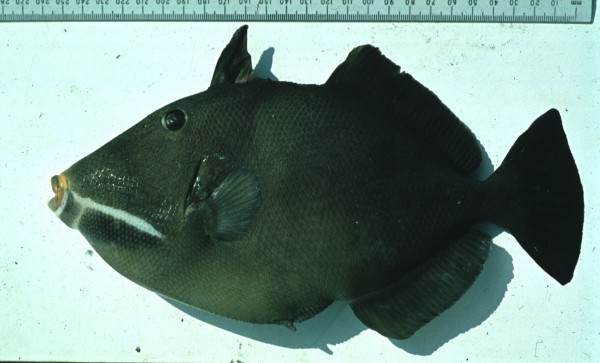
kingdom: Animalia
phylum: Chordata
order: Tetraodontiformes
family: Balistidae
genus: Sufflamen
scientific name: Sufflamen fraenatum
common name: Bridle triggerfish
